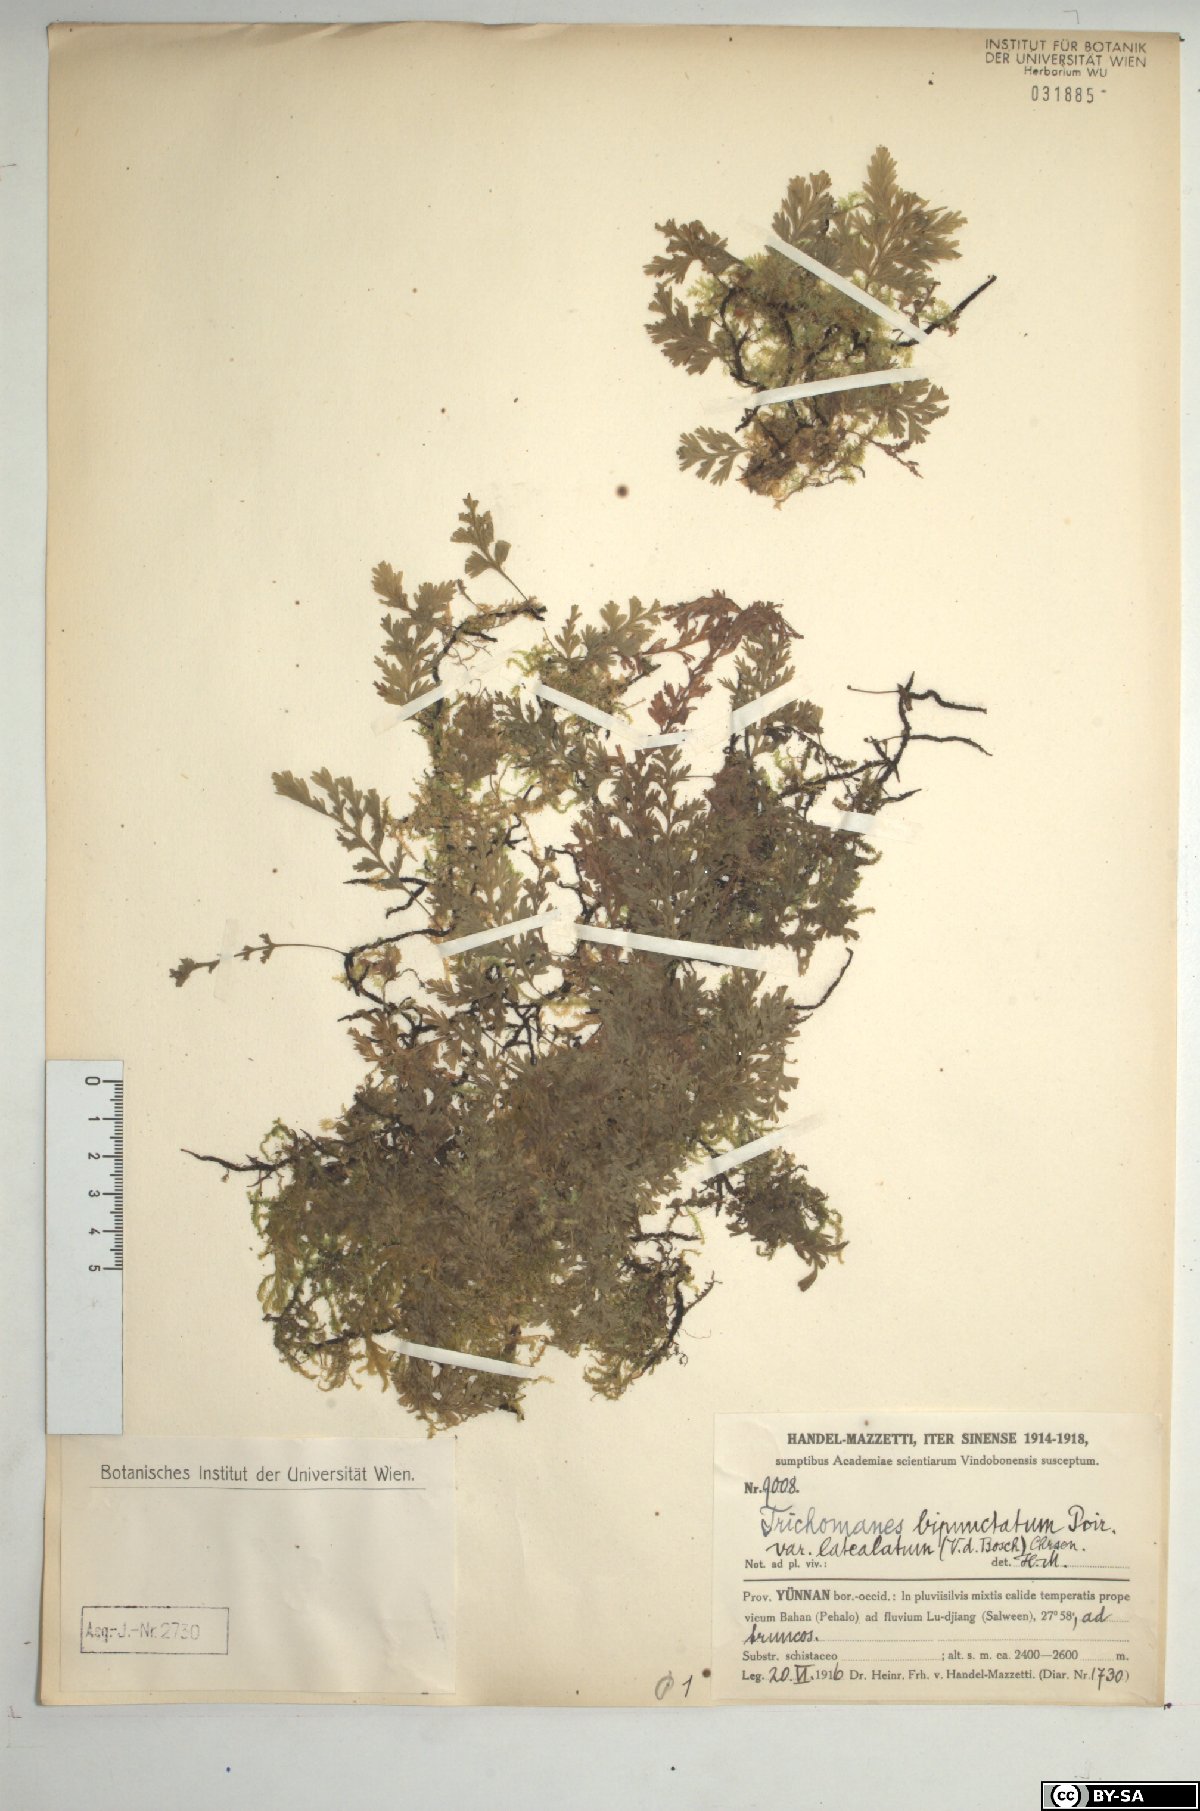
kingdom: Plantae
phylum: Tracheophyta
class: Polypodiopsida
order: Hymenophyllales
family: Hymenophyllaceae
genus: Crepidomanes
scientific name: Crepidomanes latealatum
